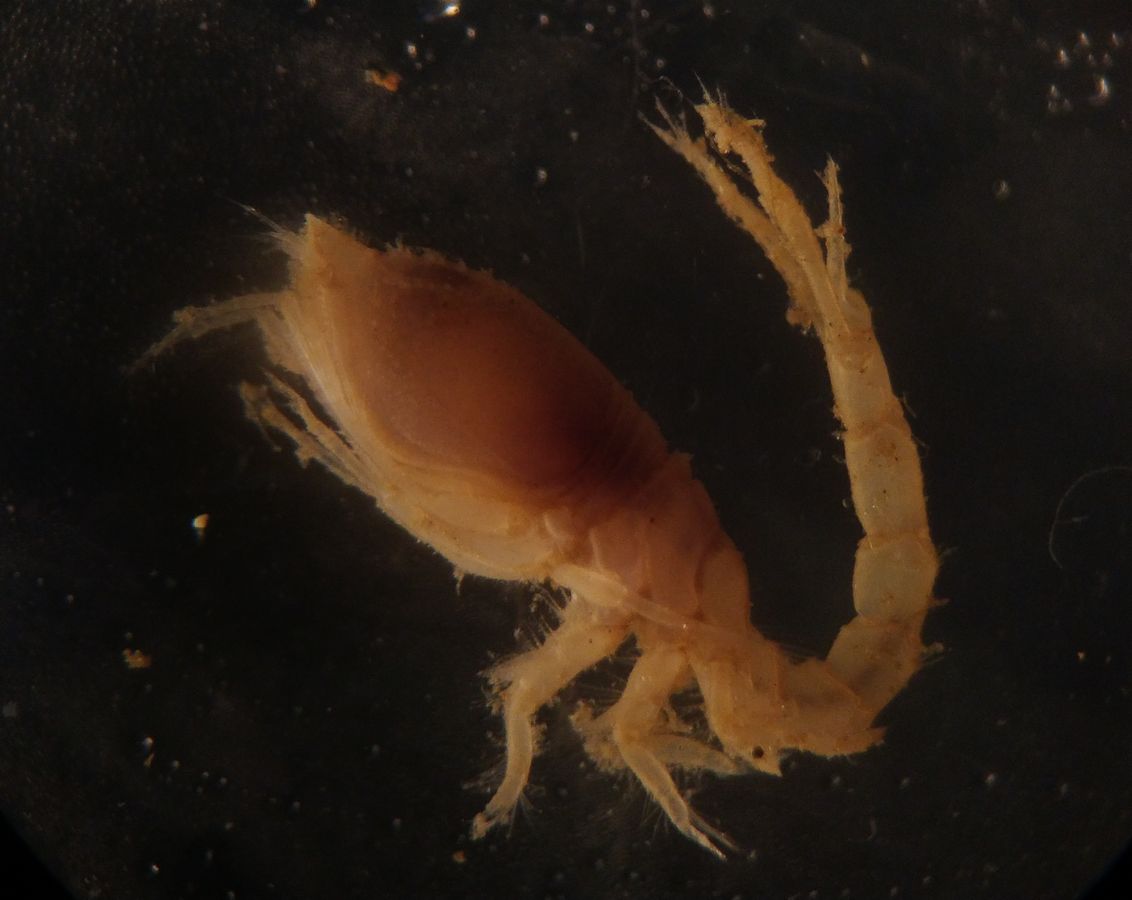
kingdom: Animalia
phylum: Arthropoda
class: Malacostraca
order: Cumacea
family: Diastylidae
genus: Diastylis
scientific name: Diastylis rathkei
